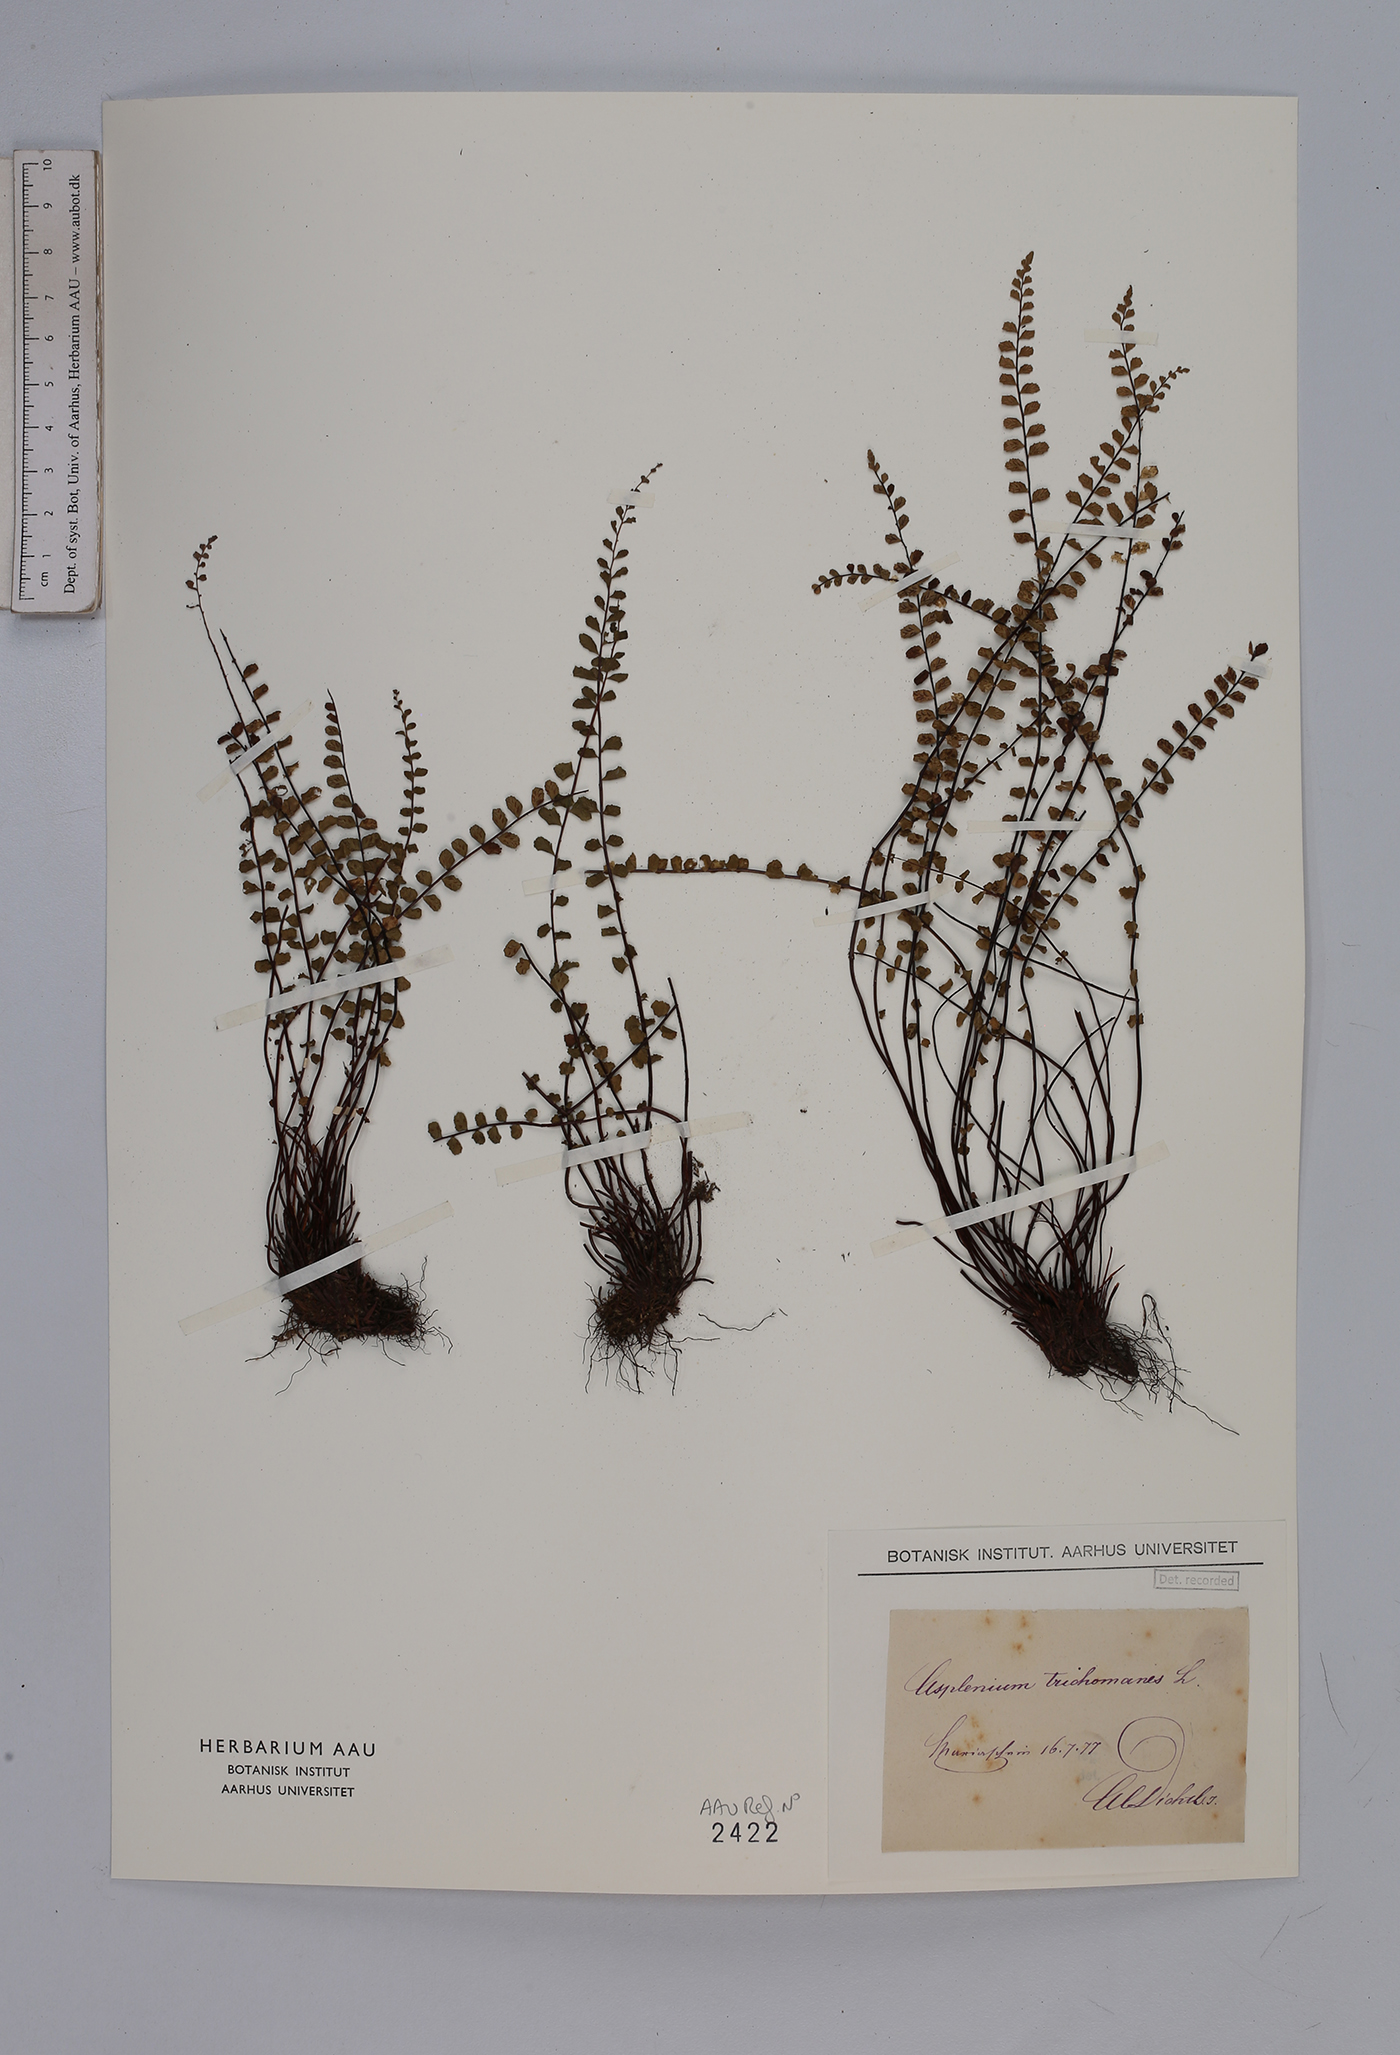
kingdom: Plantae
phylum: Tracheophyta
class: Polypodiopsida
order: Polypodiales
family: Aspleniaceae
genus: Asplenium
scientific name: Asplenium trichomanes
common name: Maidenhair spleenwort
